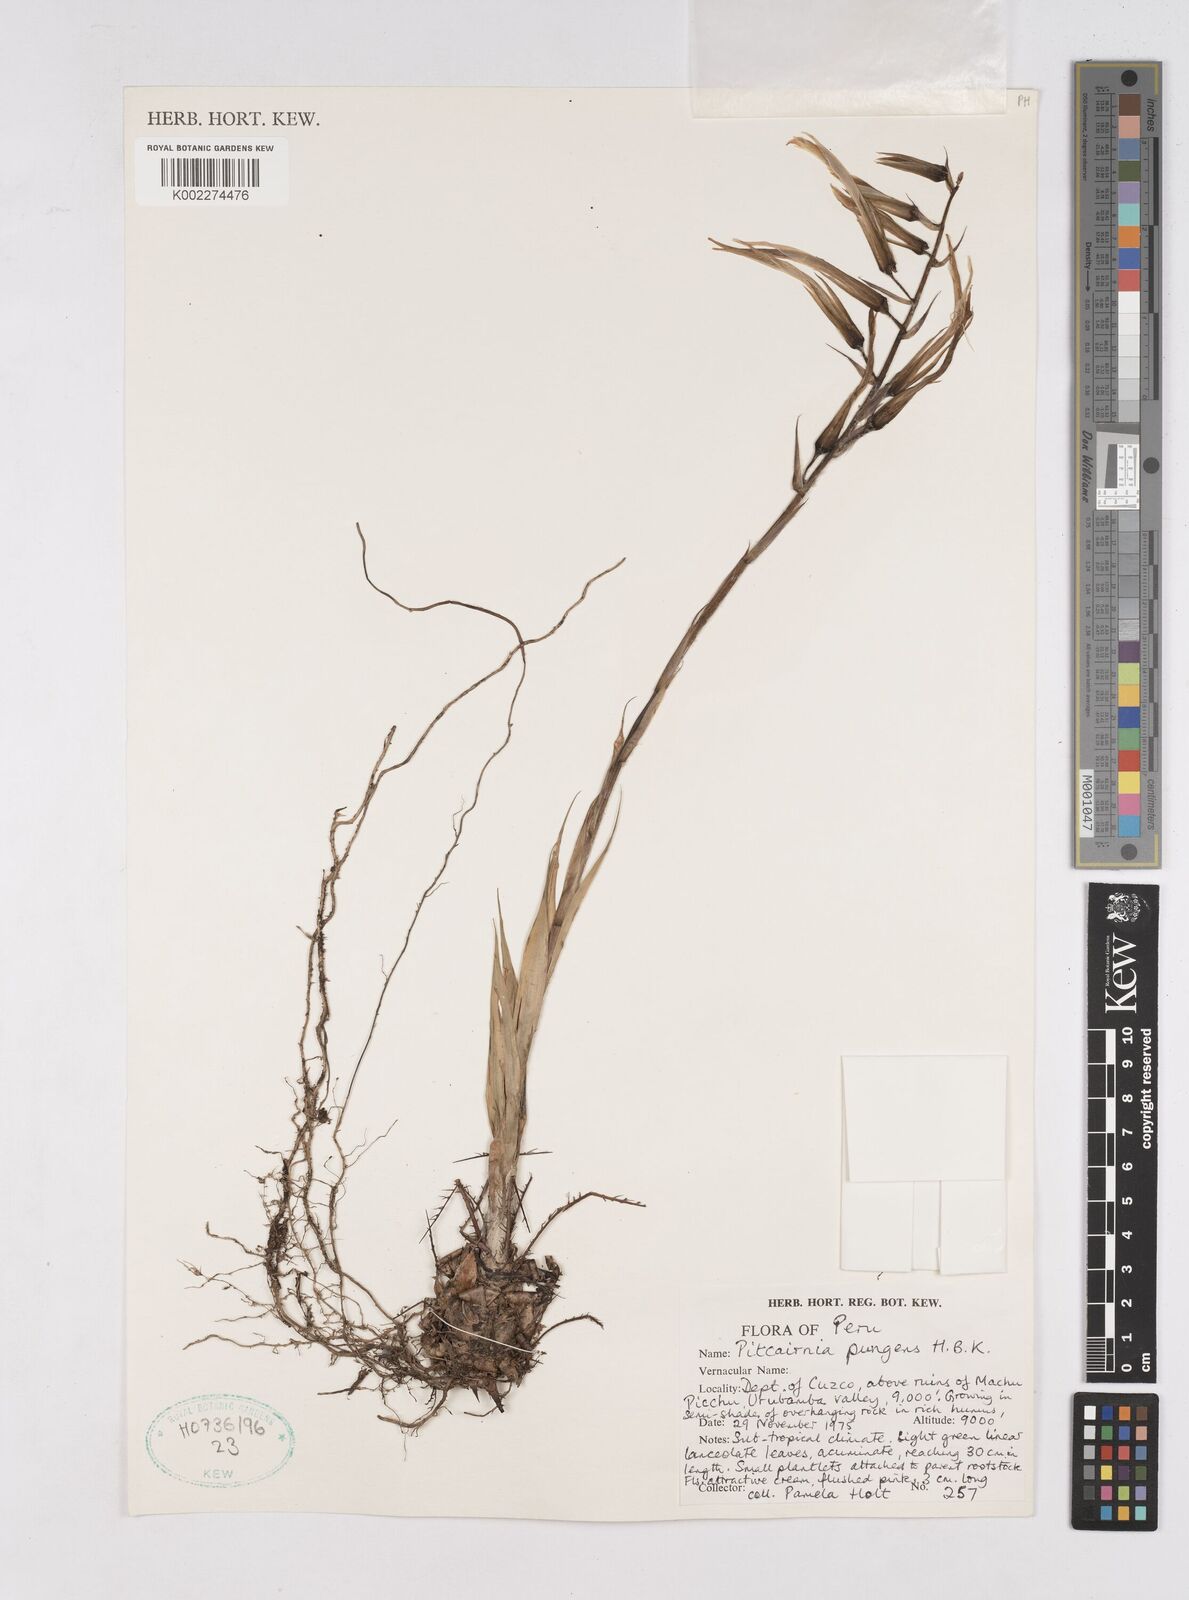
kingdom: Plantae
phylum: Tracheophyta
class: Liliopsida
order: Poales
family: Bromeliaceae
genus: Pitcairnia
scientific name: Pitcairnia pungens
